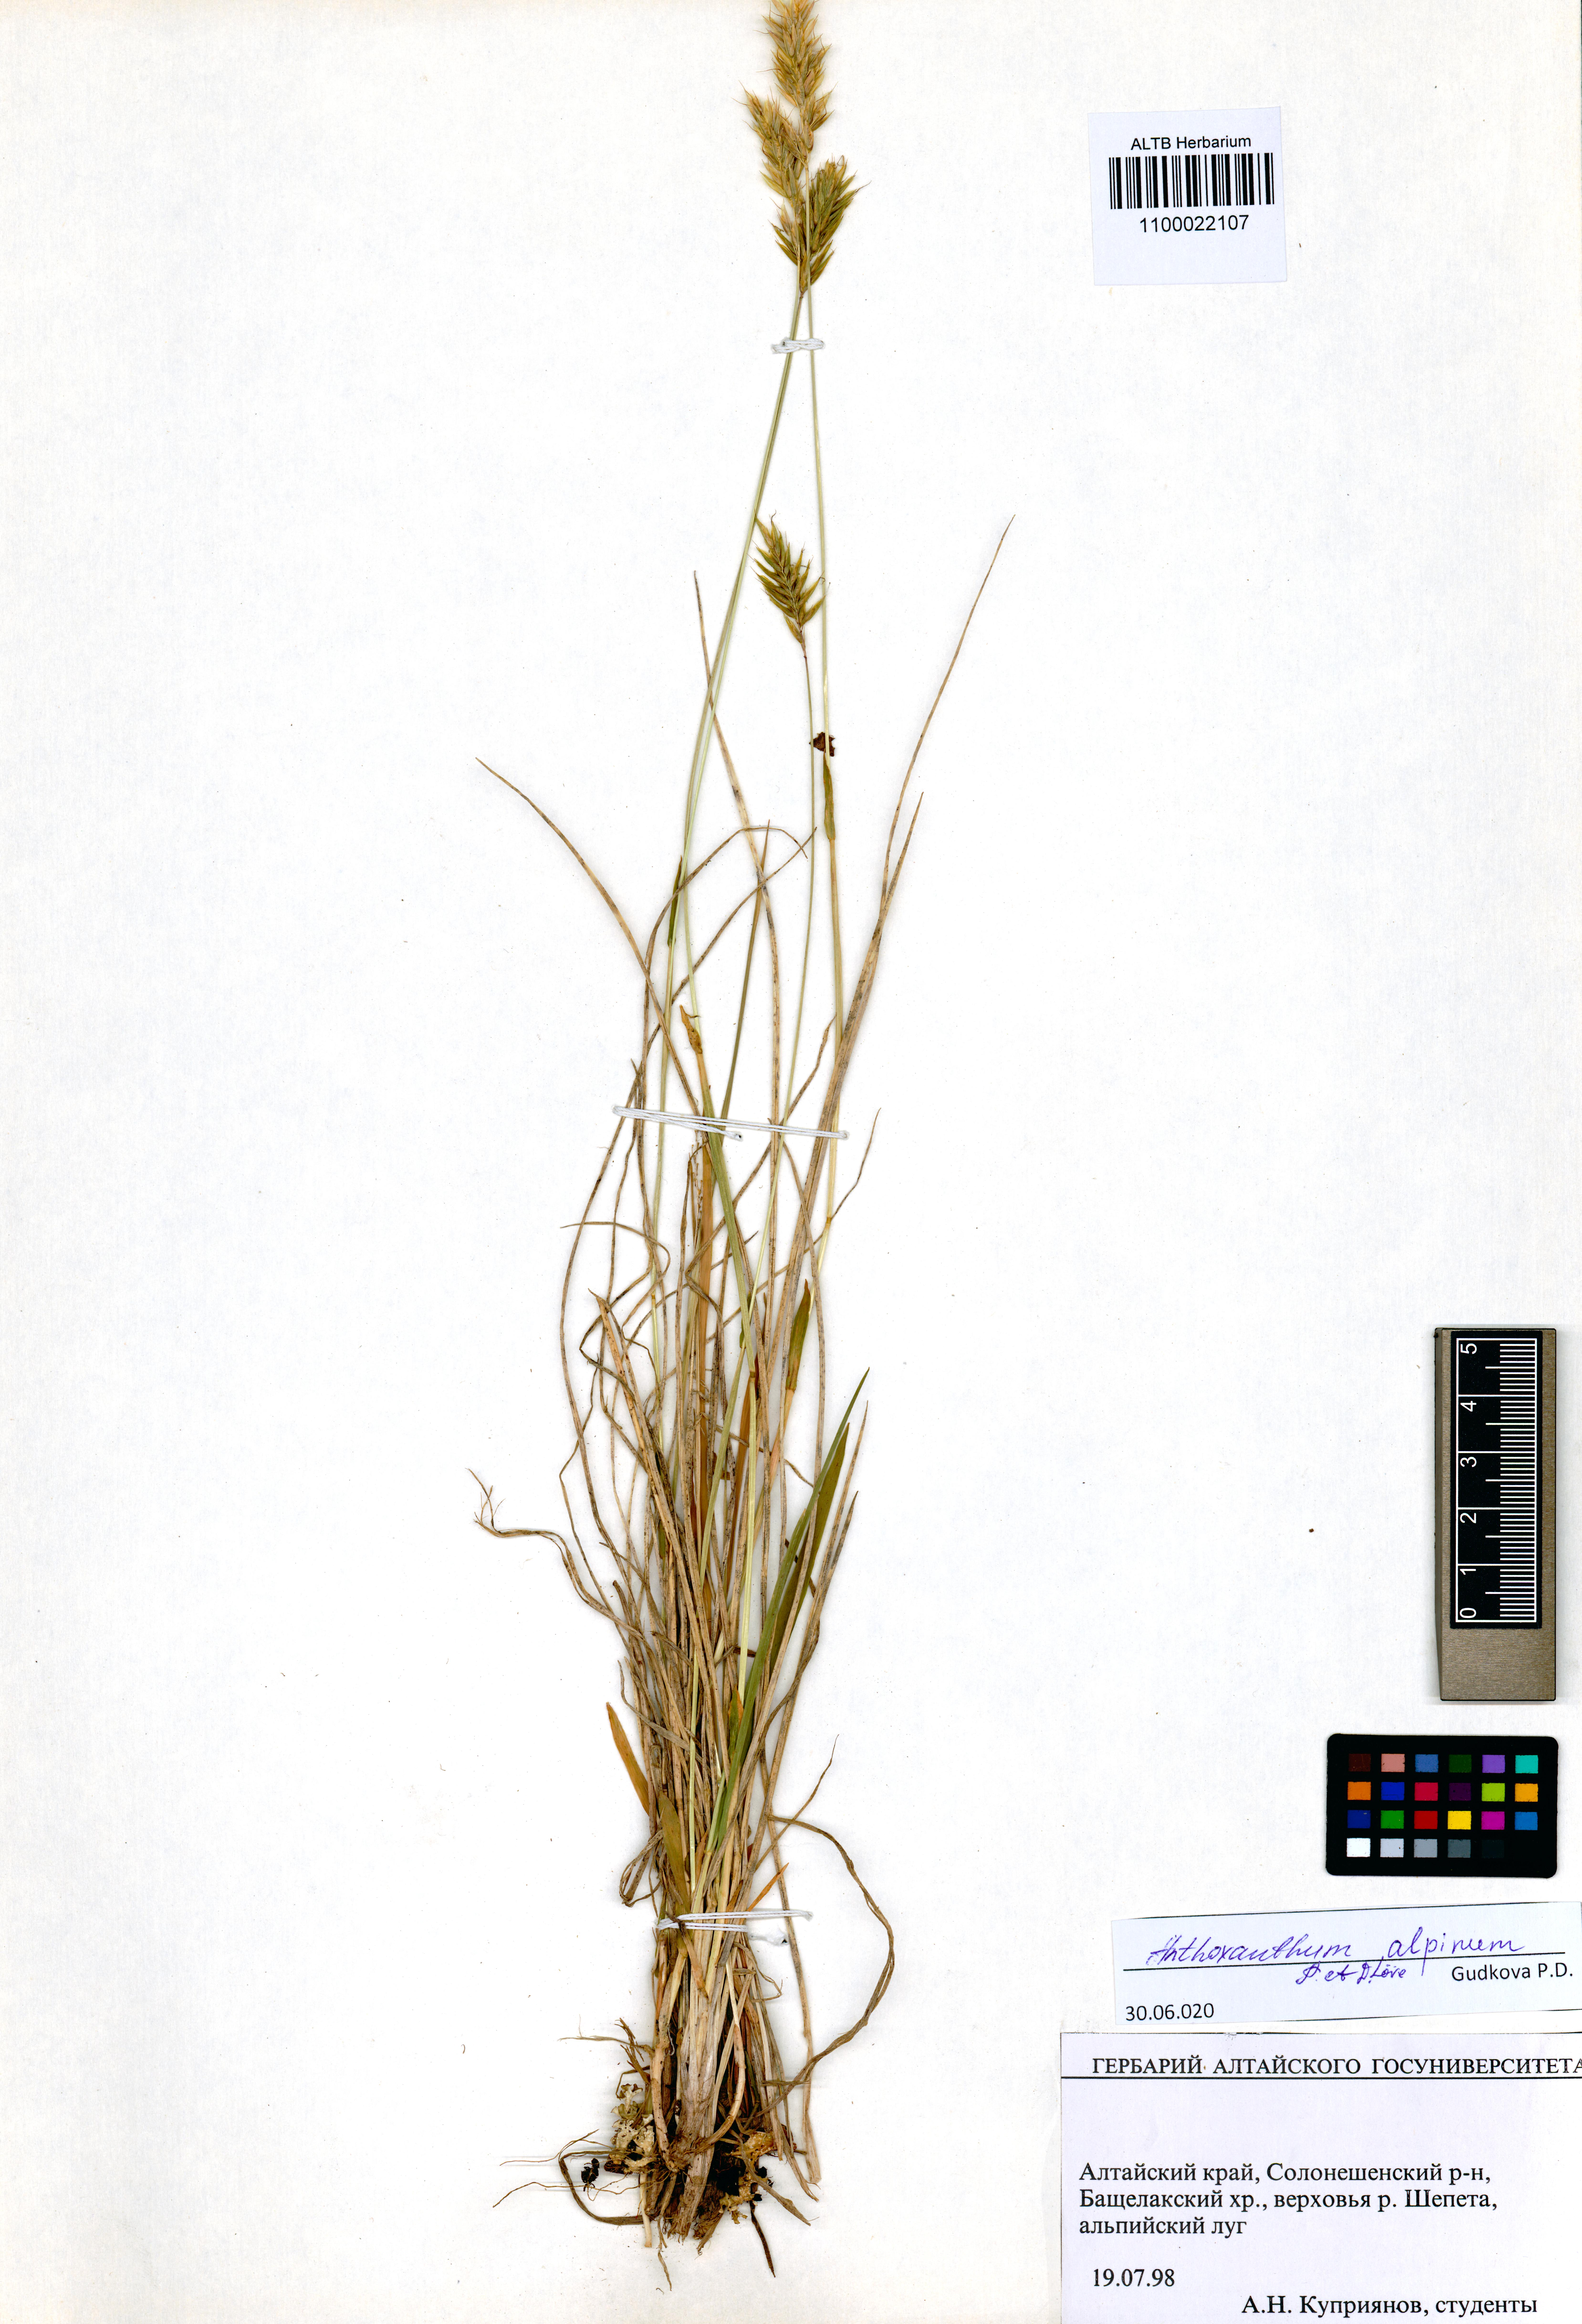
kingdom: Plantae
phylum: Tracheophyta
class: Liliopsida
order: Poales
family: Poaceae
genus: Anthoxanthum
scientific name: Anthoxanthum nipponicum
